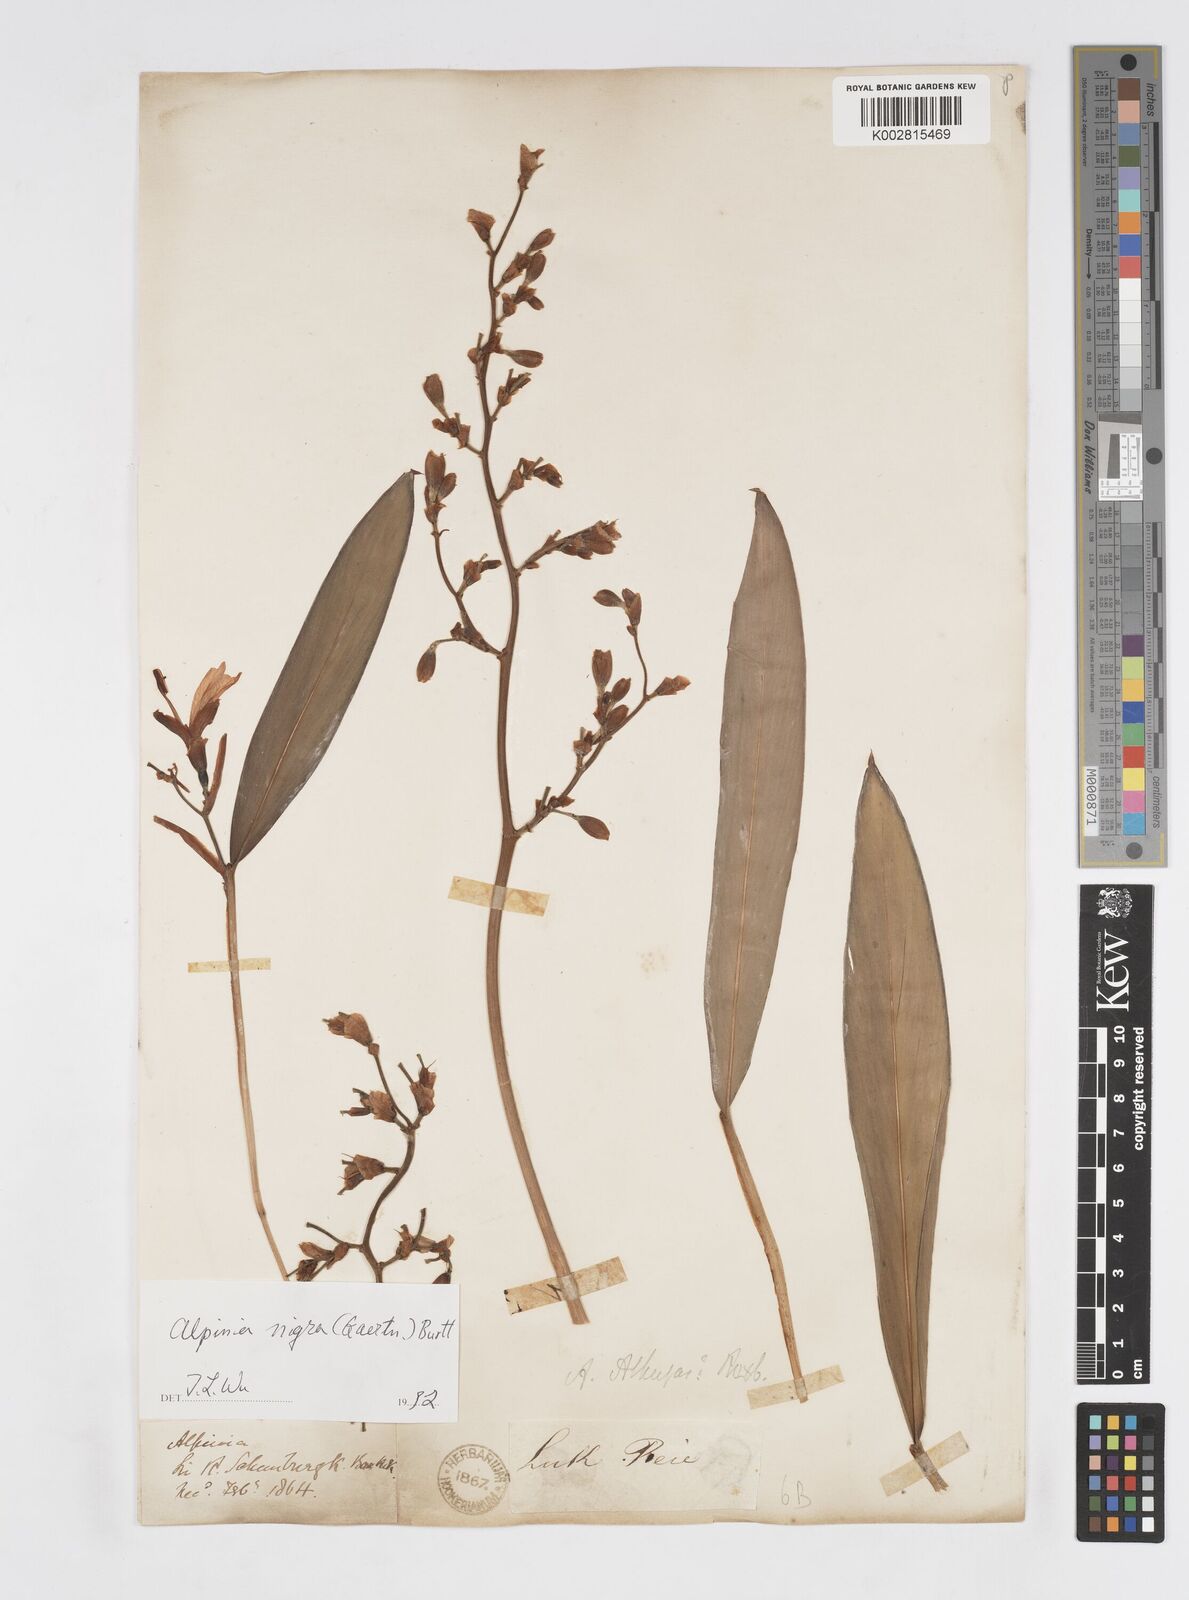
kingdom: Plantae
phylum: Tracheophyta
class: Liliopsida
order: Zingiberales
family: Zingiberaceae
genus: Alpinia
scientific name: Alpinia nigra
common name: Black fruited galanga
